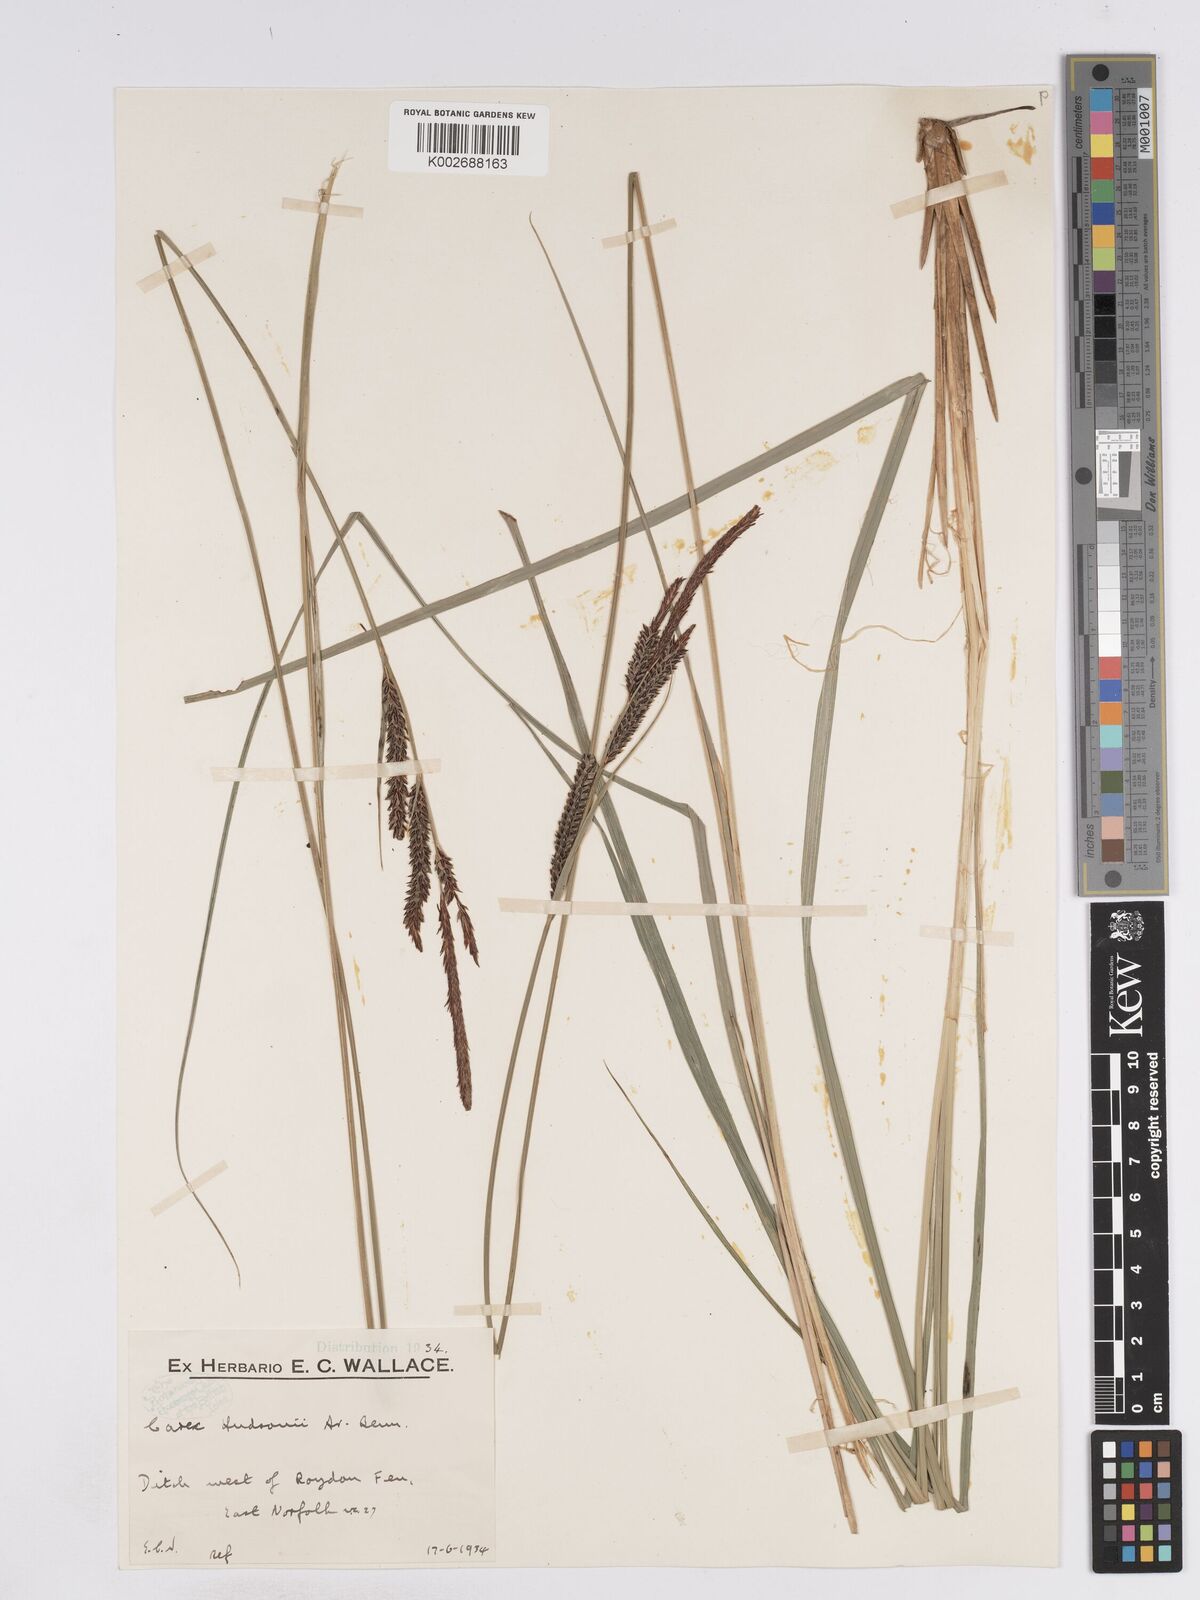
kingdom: Plantae
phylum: Tracheophyta
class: Liliopsida
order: Poales
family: Cyperaceae
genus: Carex
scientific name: Carex elata
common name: Tufted sedge
